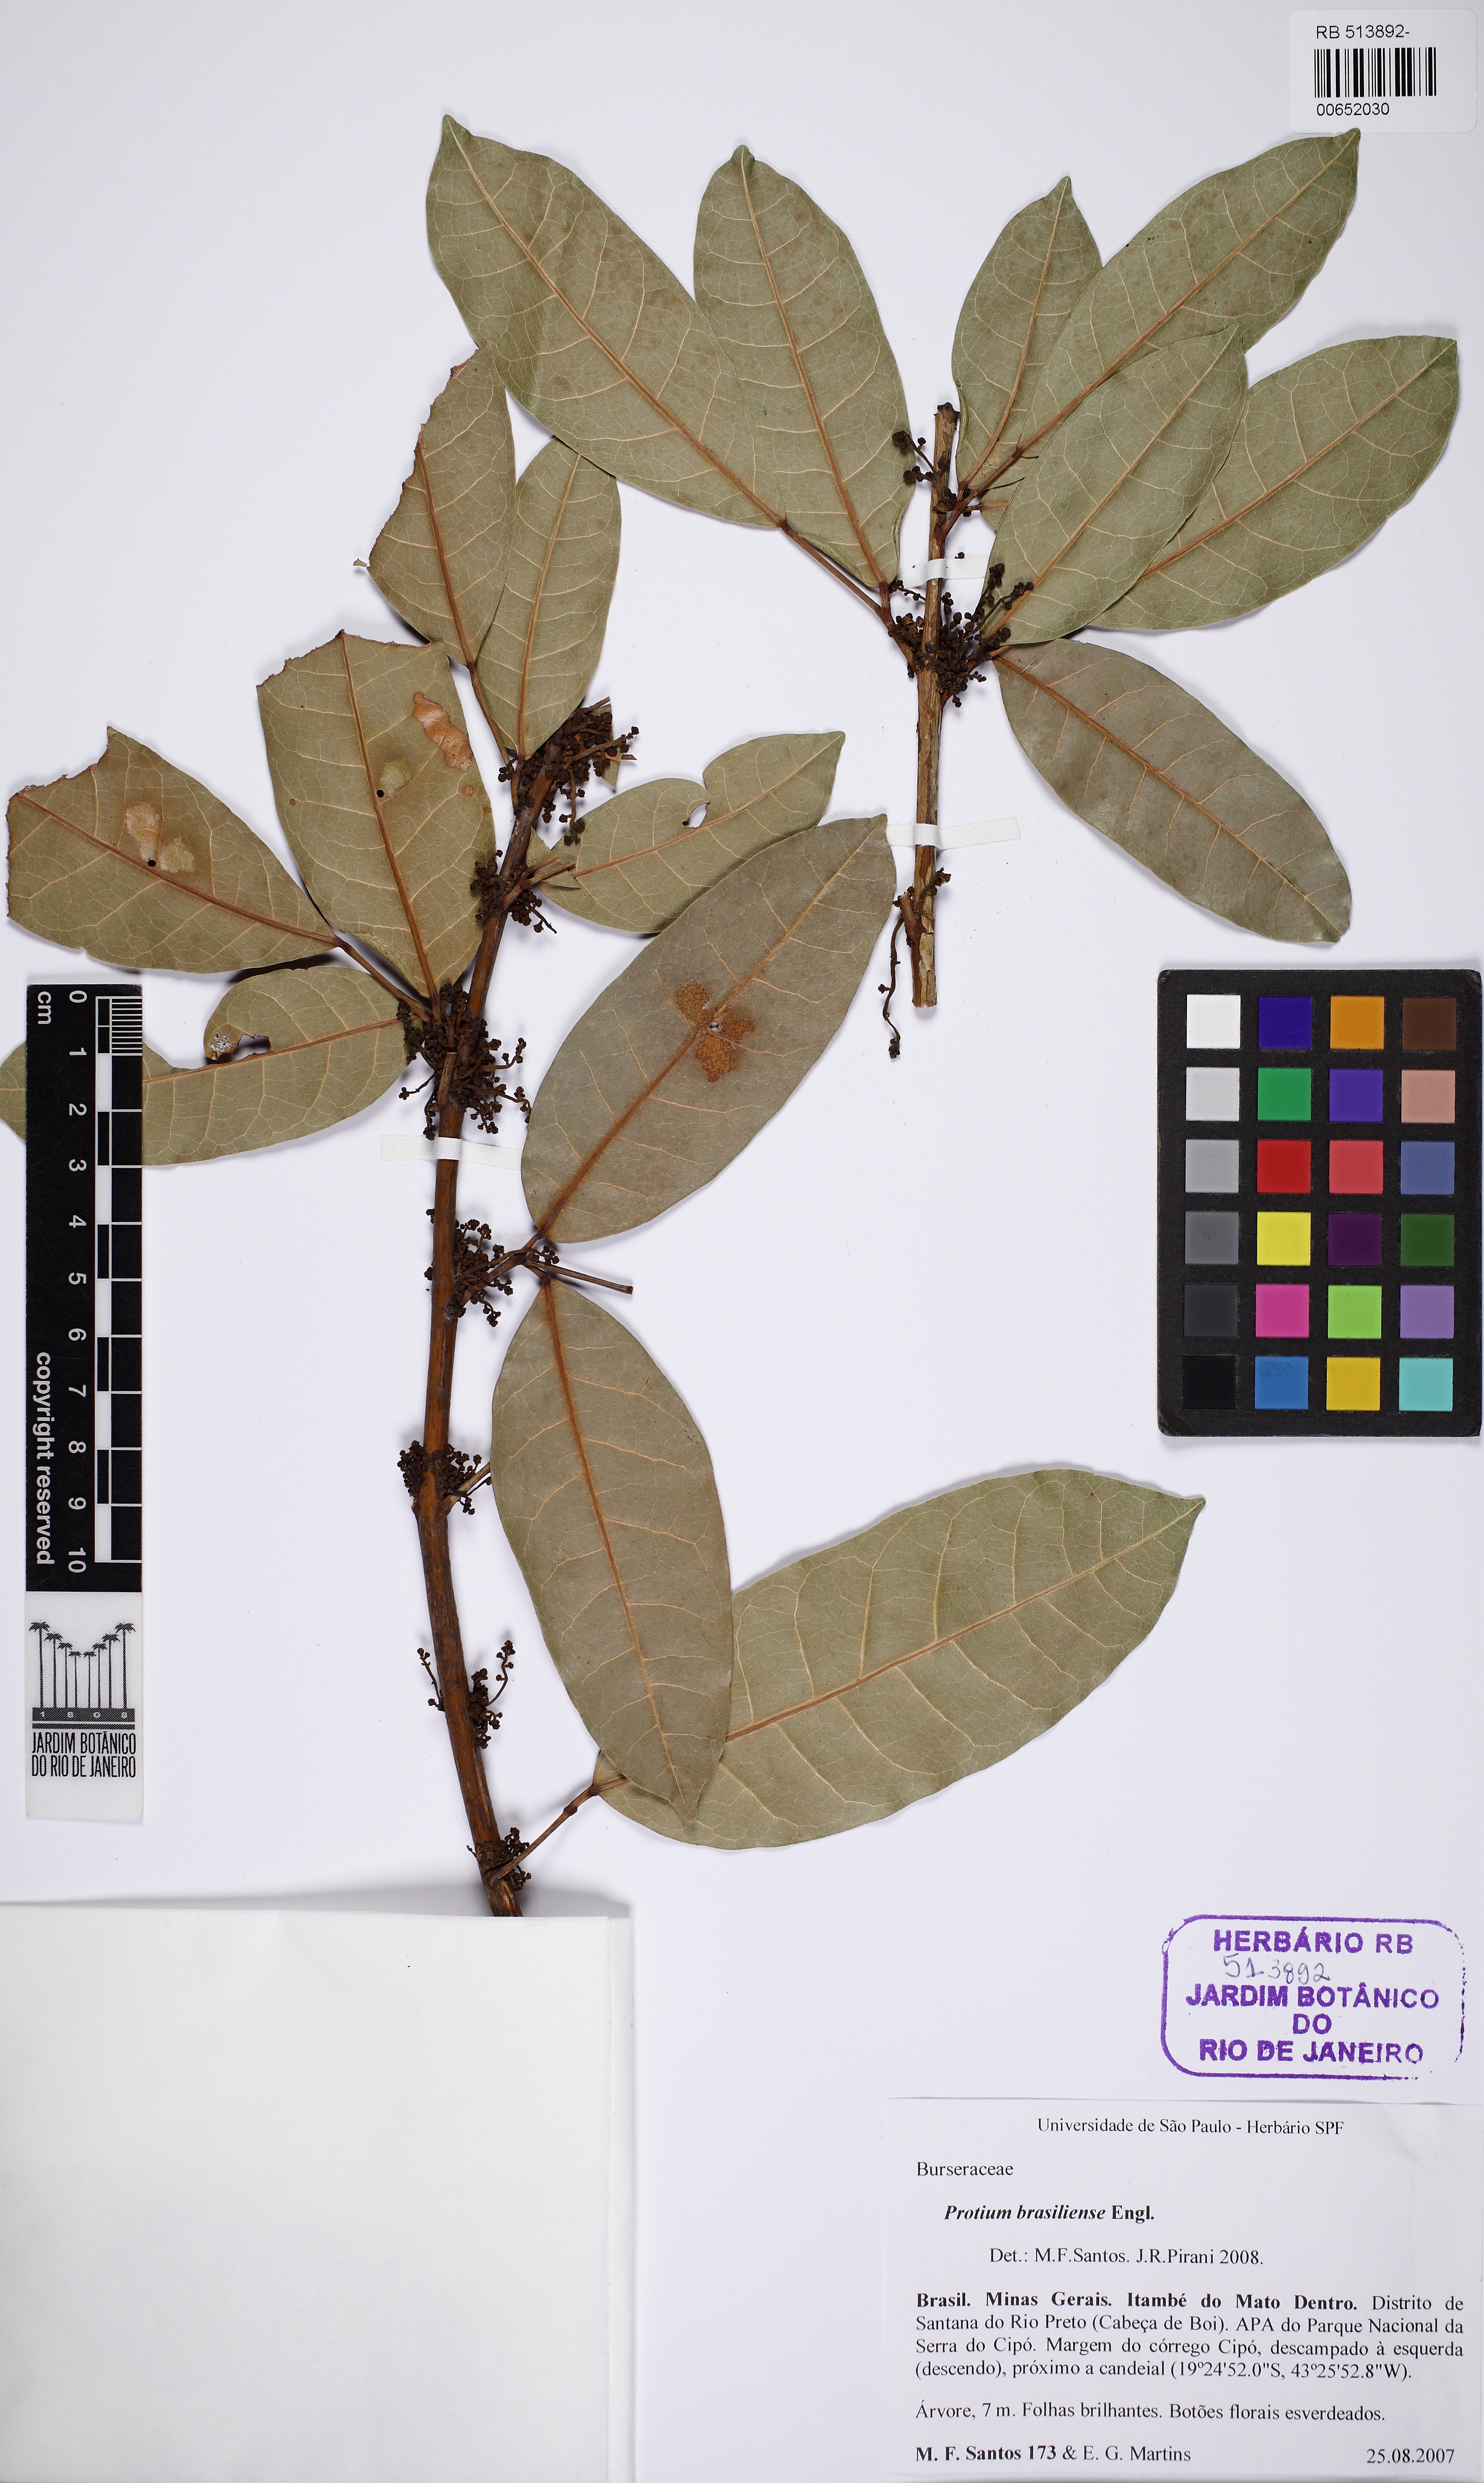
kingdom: Plantae
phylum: Tracheophyta
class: Magnoliopsida
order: Sapindales
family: Burseraceae
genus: Protium
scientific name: Protium brasiliense
